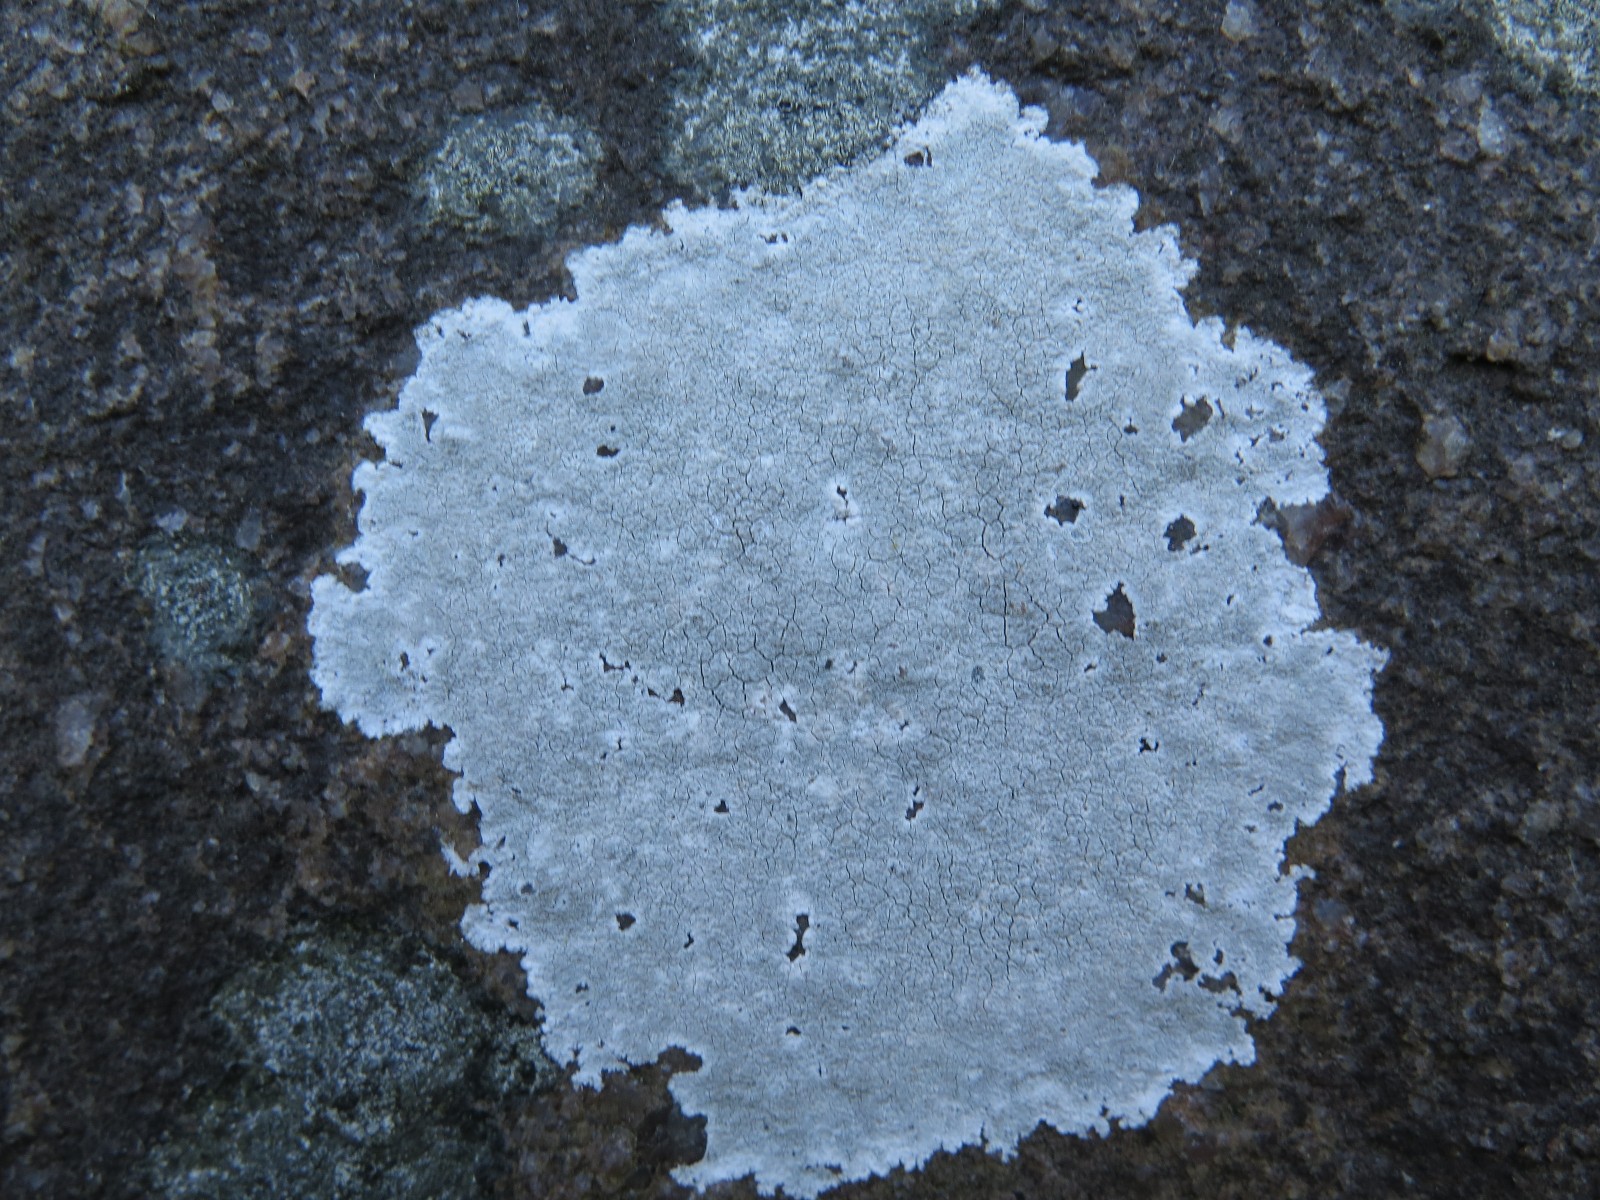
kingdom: Fungi
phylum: Ascomycota
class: Lecanoromycetes
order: Lecanorales
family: Lecanoraceae
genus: Glaucomaria
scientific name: Glaucomaria rupicola
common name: stengærde-kantskivelav
